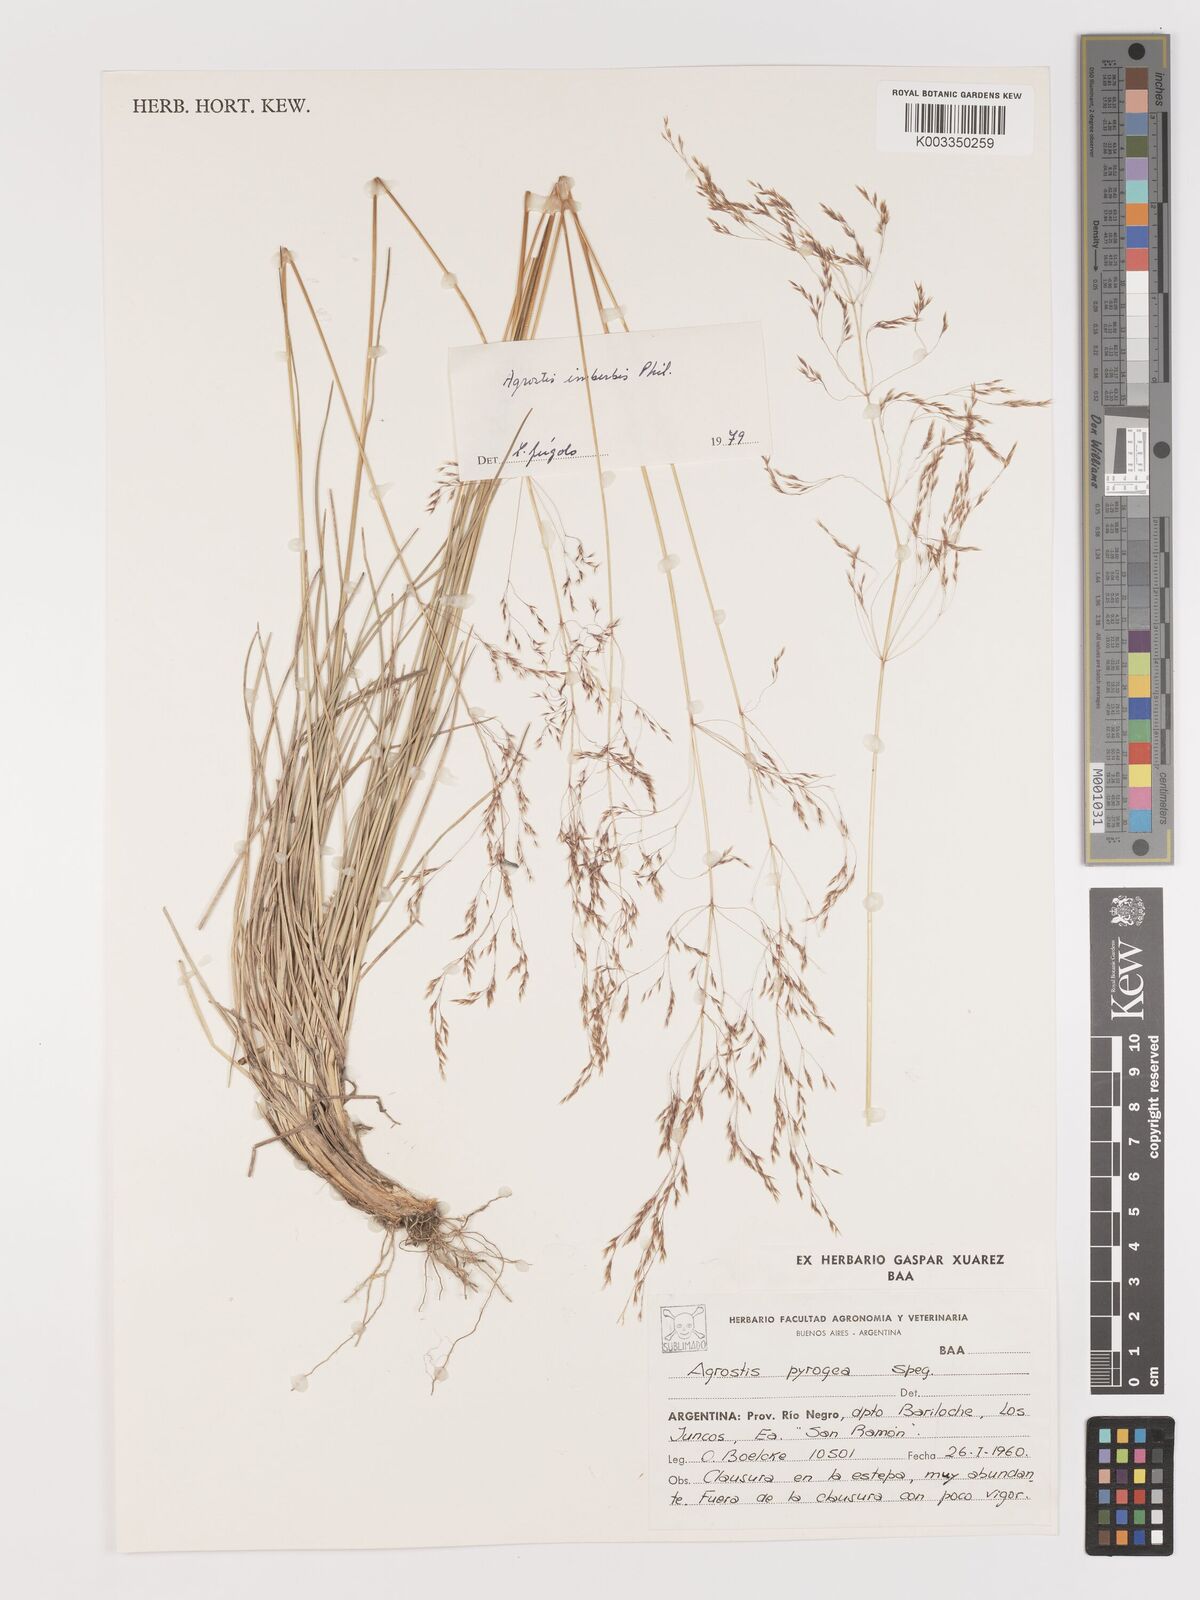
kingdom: Plantae
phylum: Tracheophyta
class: Liliopsida
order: Poales
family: Poaceae
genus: Agrostis
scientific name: Agrostis imberbis
